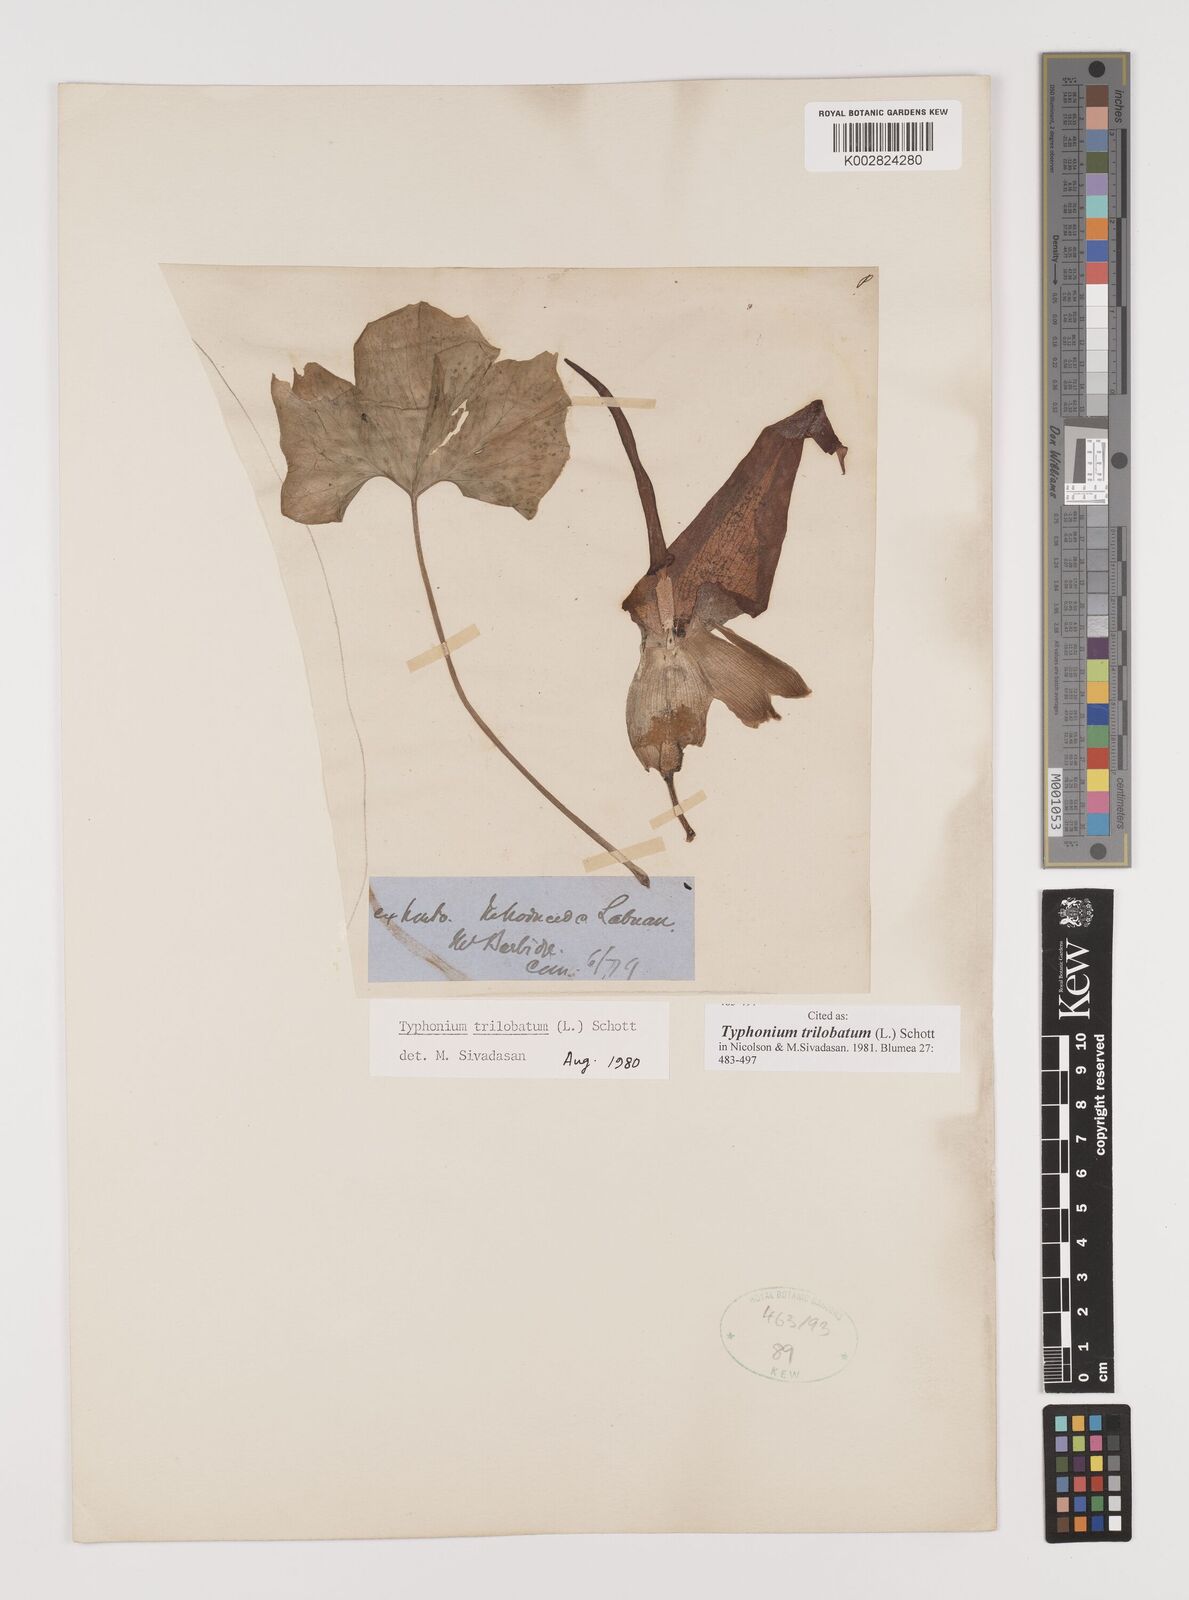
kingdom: Plantae
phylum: Tracheophyta
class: Liliopsida
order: Alismatales
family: Araceae
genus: Typhonium
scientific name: Typhonium trilobatum
